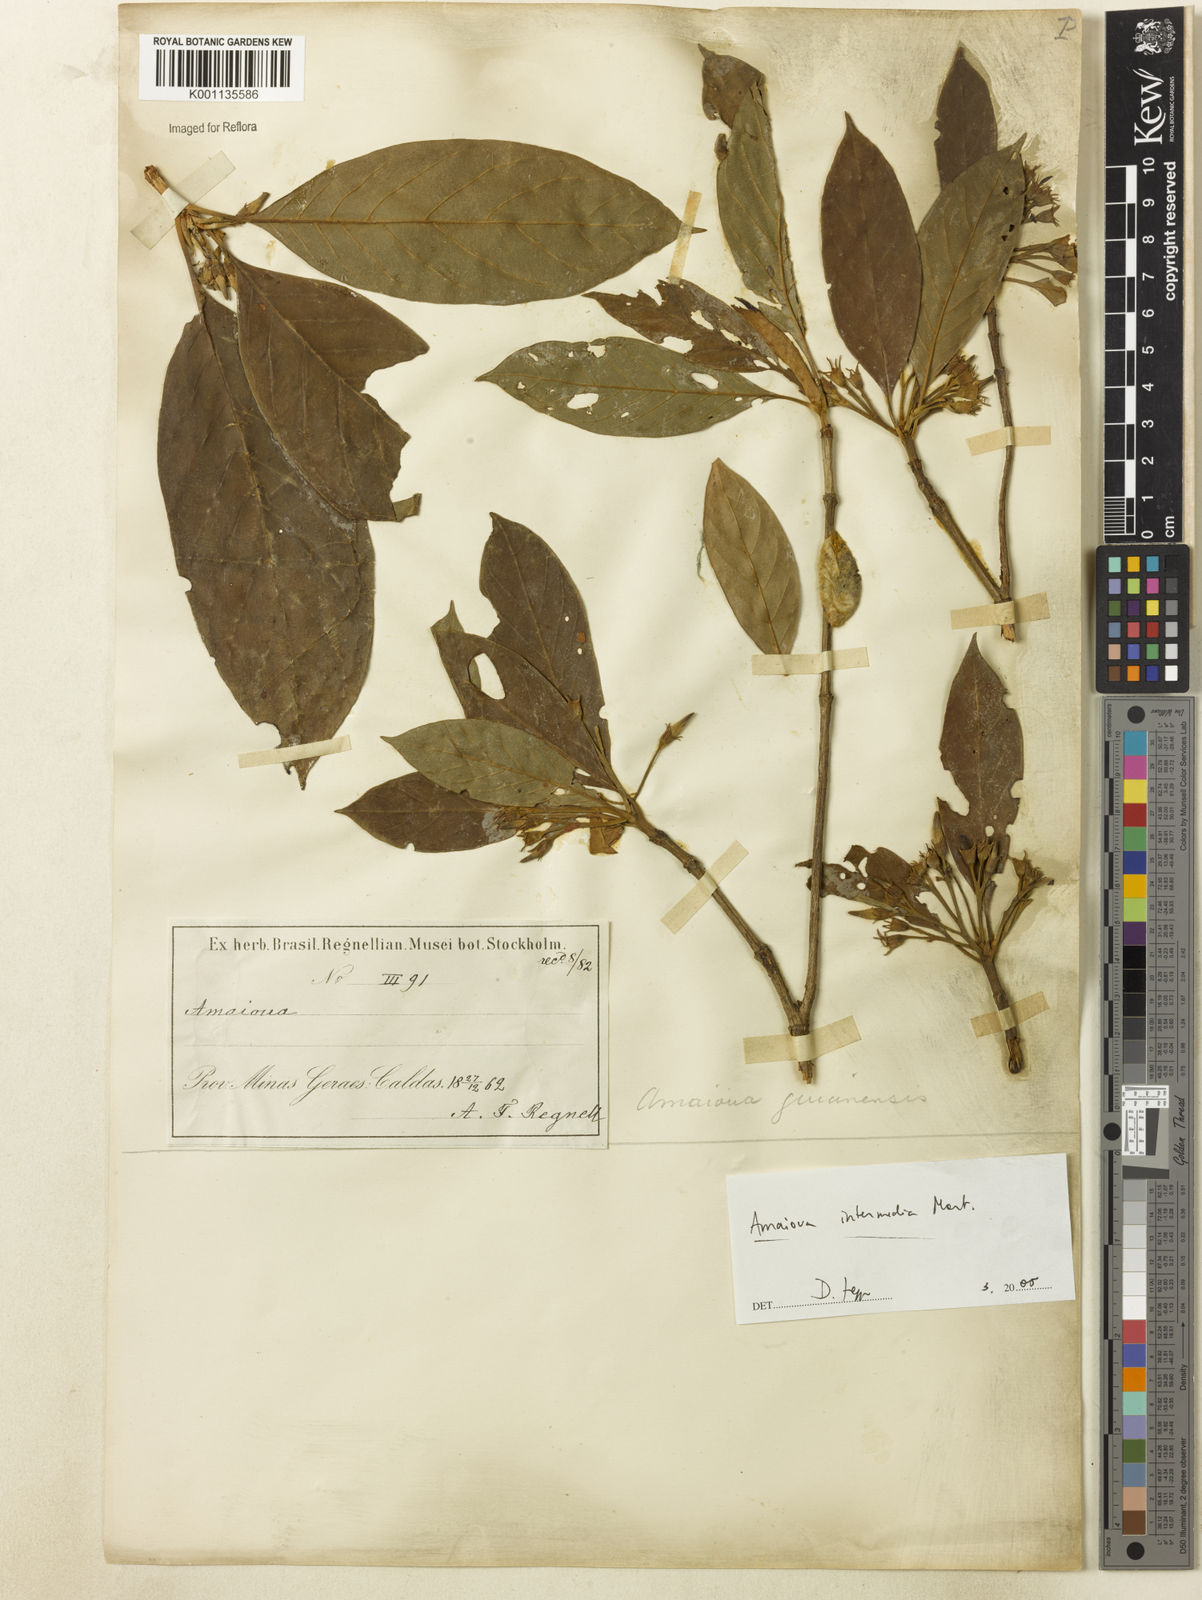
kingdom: Plantae
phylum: Tracheophyta
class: Magnoliopsida
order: Gentianales
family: Rubiaceae
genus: Amaioua
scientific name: Amaioua intermedia
